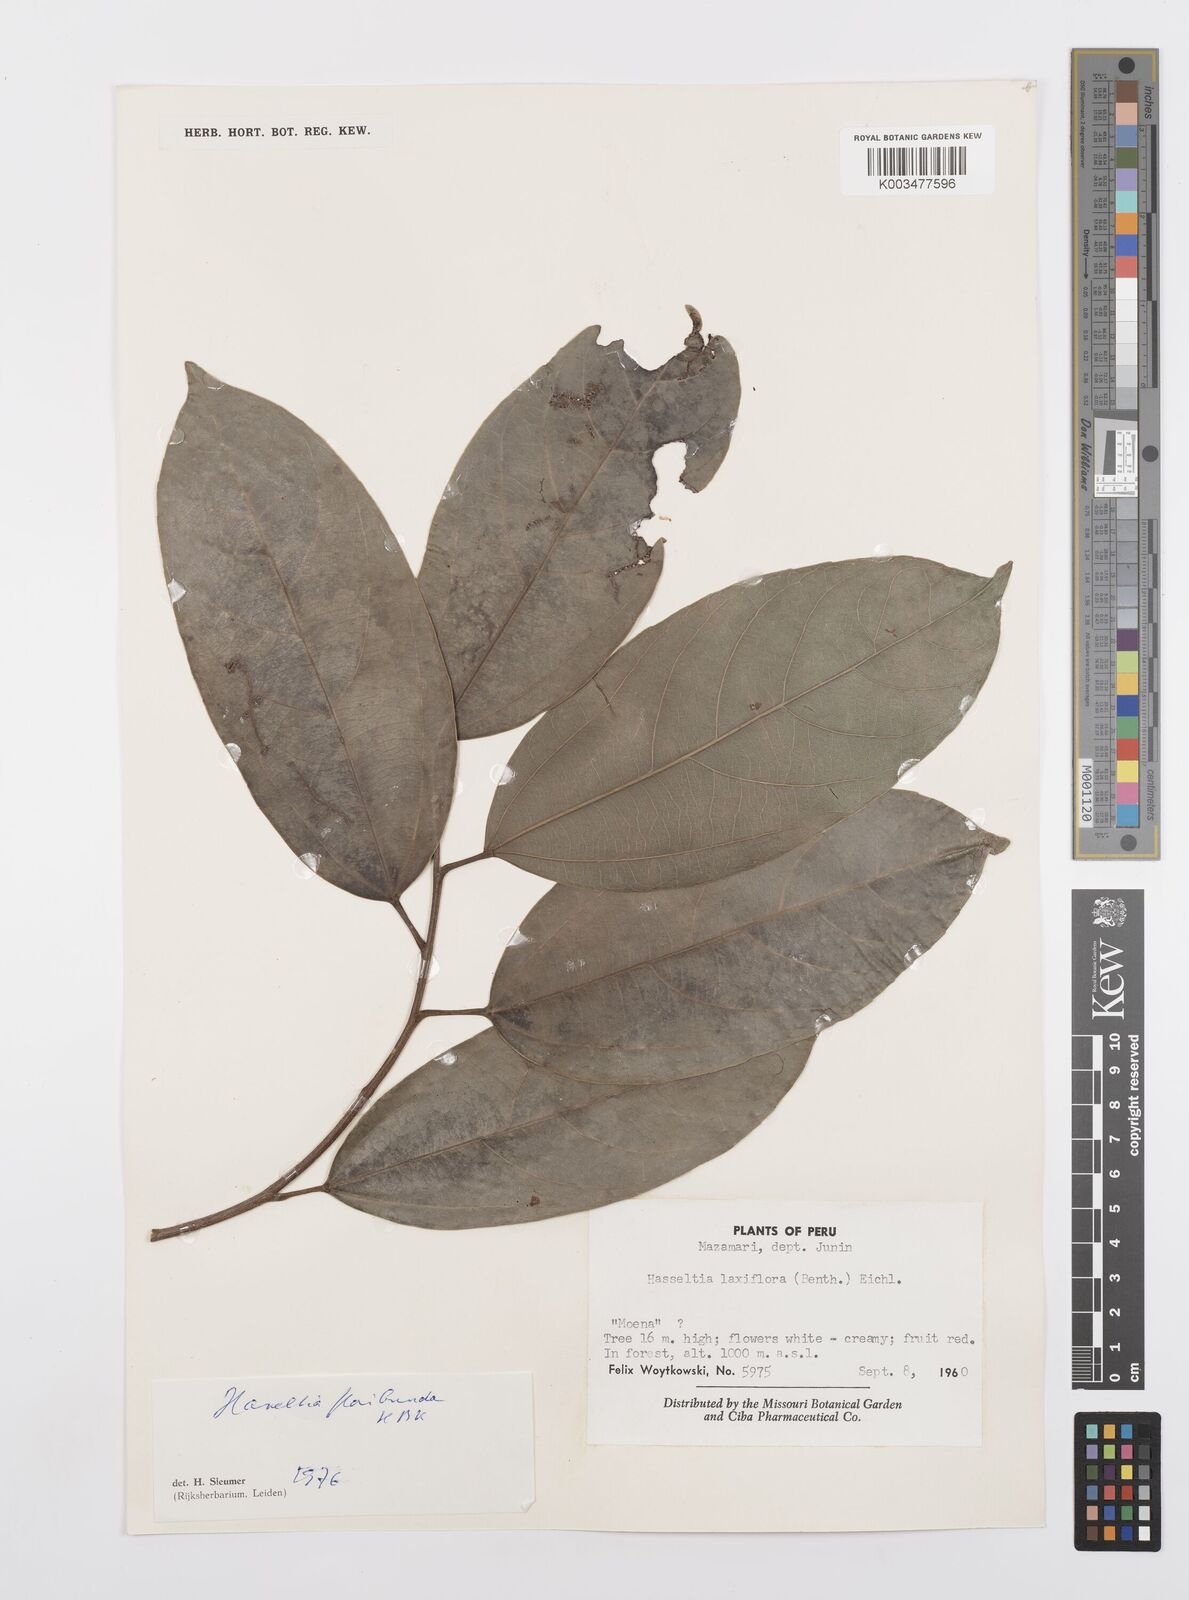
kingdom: Plantae
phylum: Tracheophyta
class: Magnoliopsida
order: Malpighiales
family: Salicaceae
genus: Hasseltia
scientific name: Hasseltia floribunda
